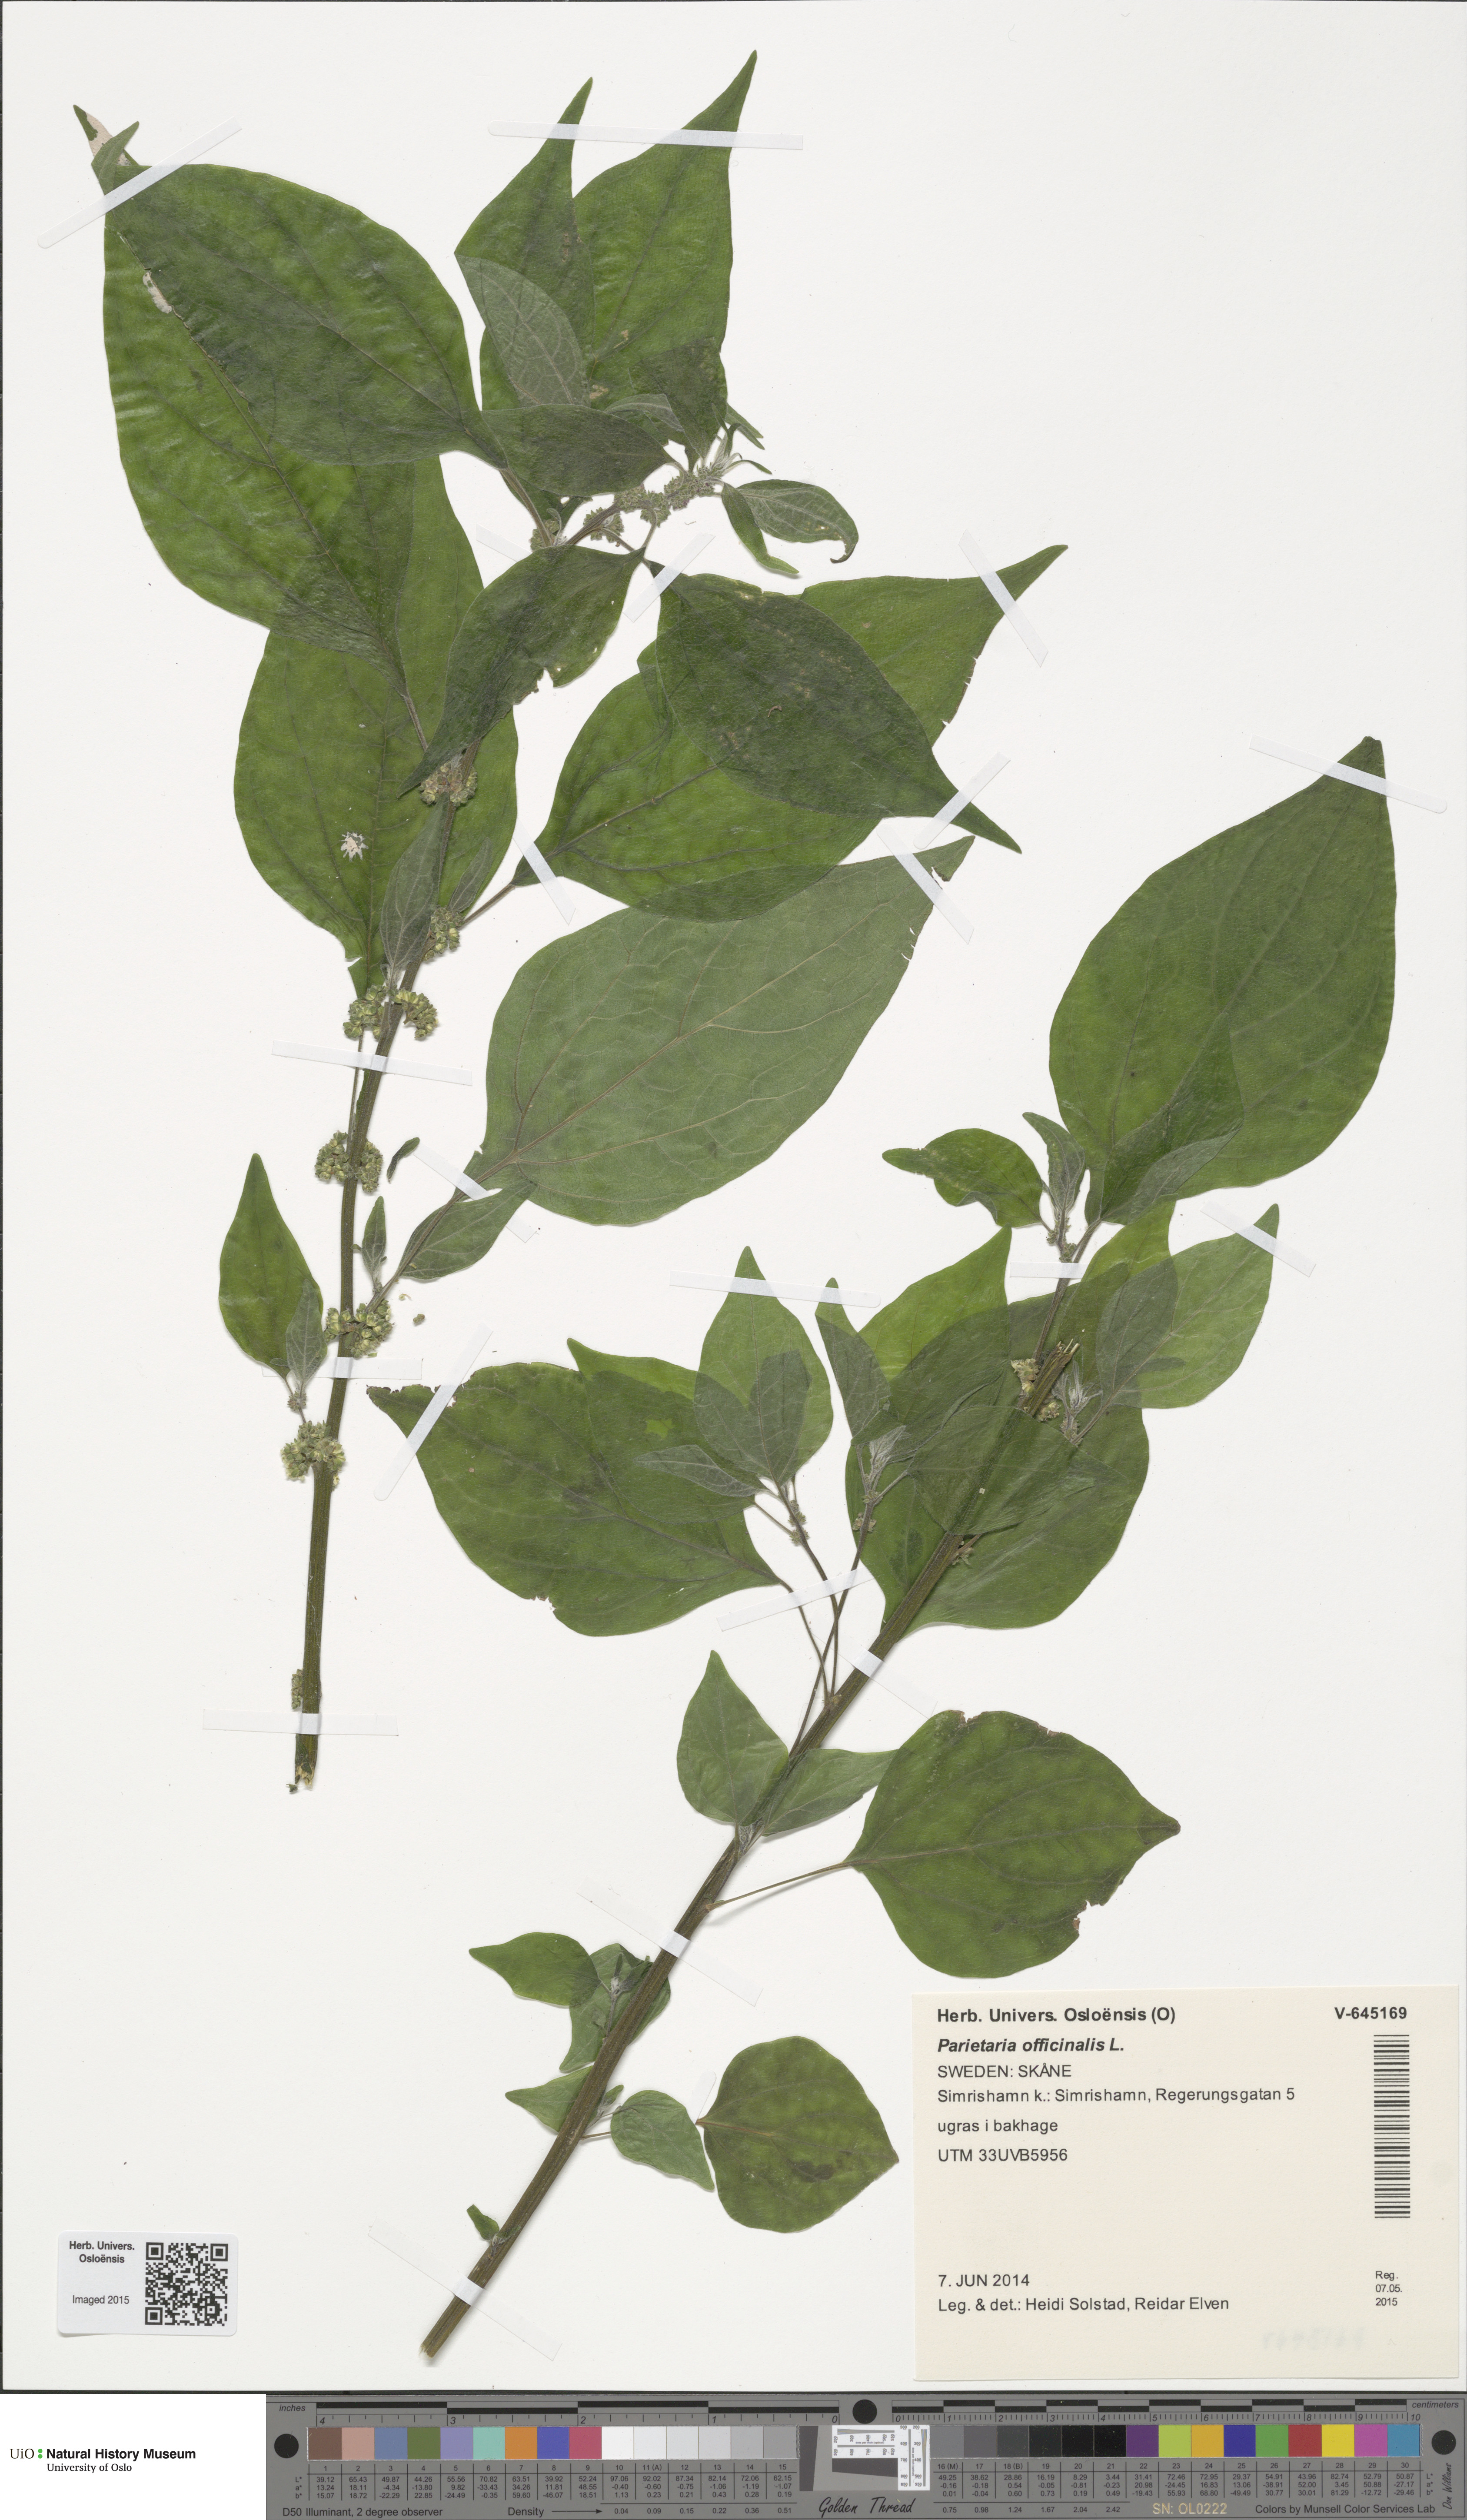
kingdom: Plantae
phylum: Tracheophyta
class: Magnoliopsida
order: Rosales
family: Urticaceae
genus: Parietaria
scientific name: Parietaria officinalis
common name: Eastern pellitory-of-the-wall
